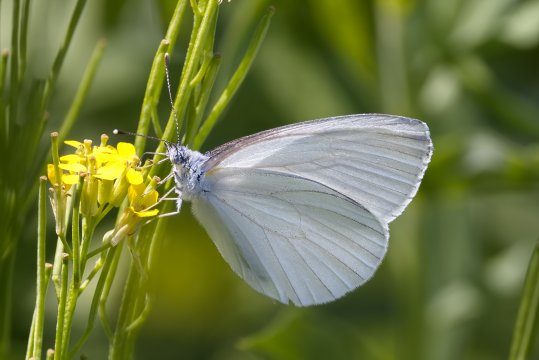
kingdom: Animalia
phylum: Arthropoda
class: Insecta
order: Lepidoptera
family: Pieridae
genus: Pieris
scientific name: Pieris oleracea
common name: Mustard White
